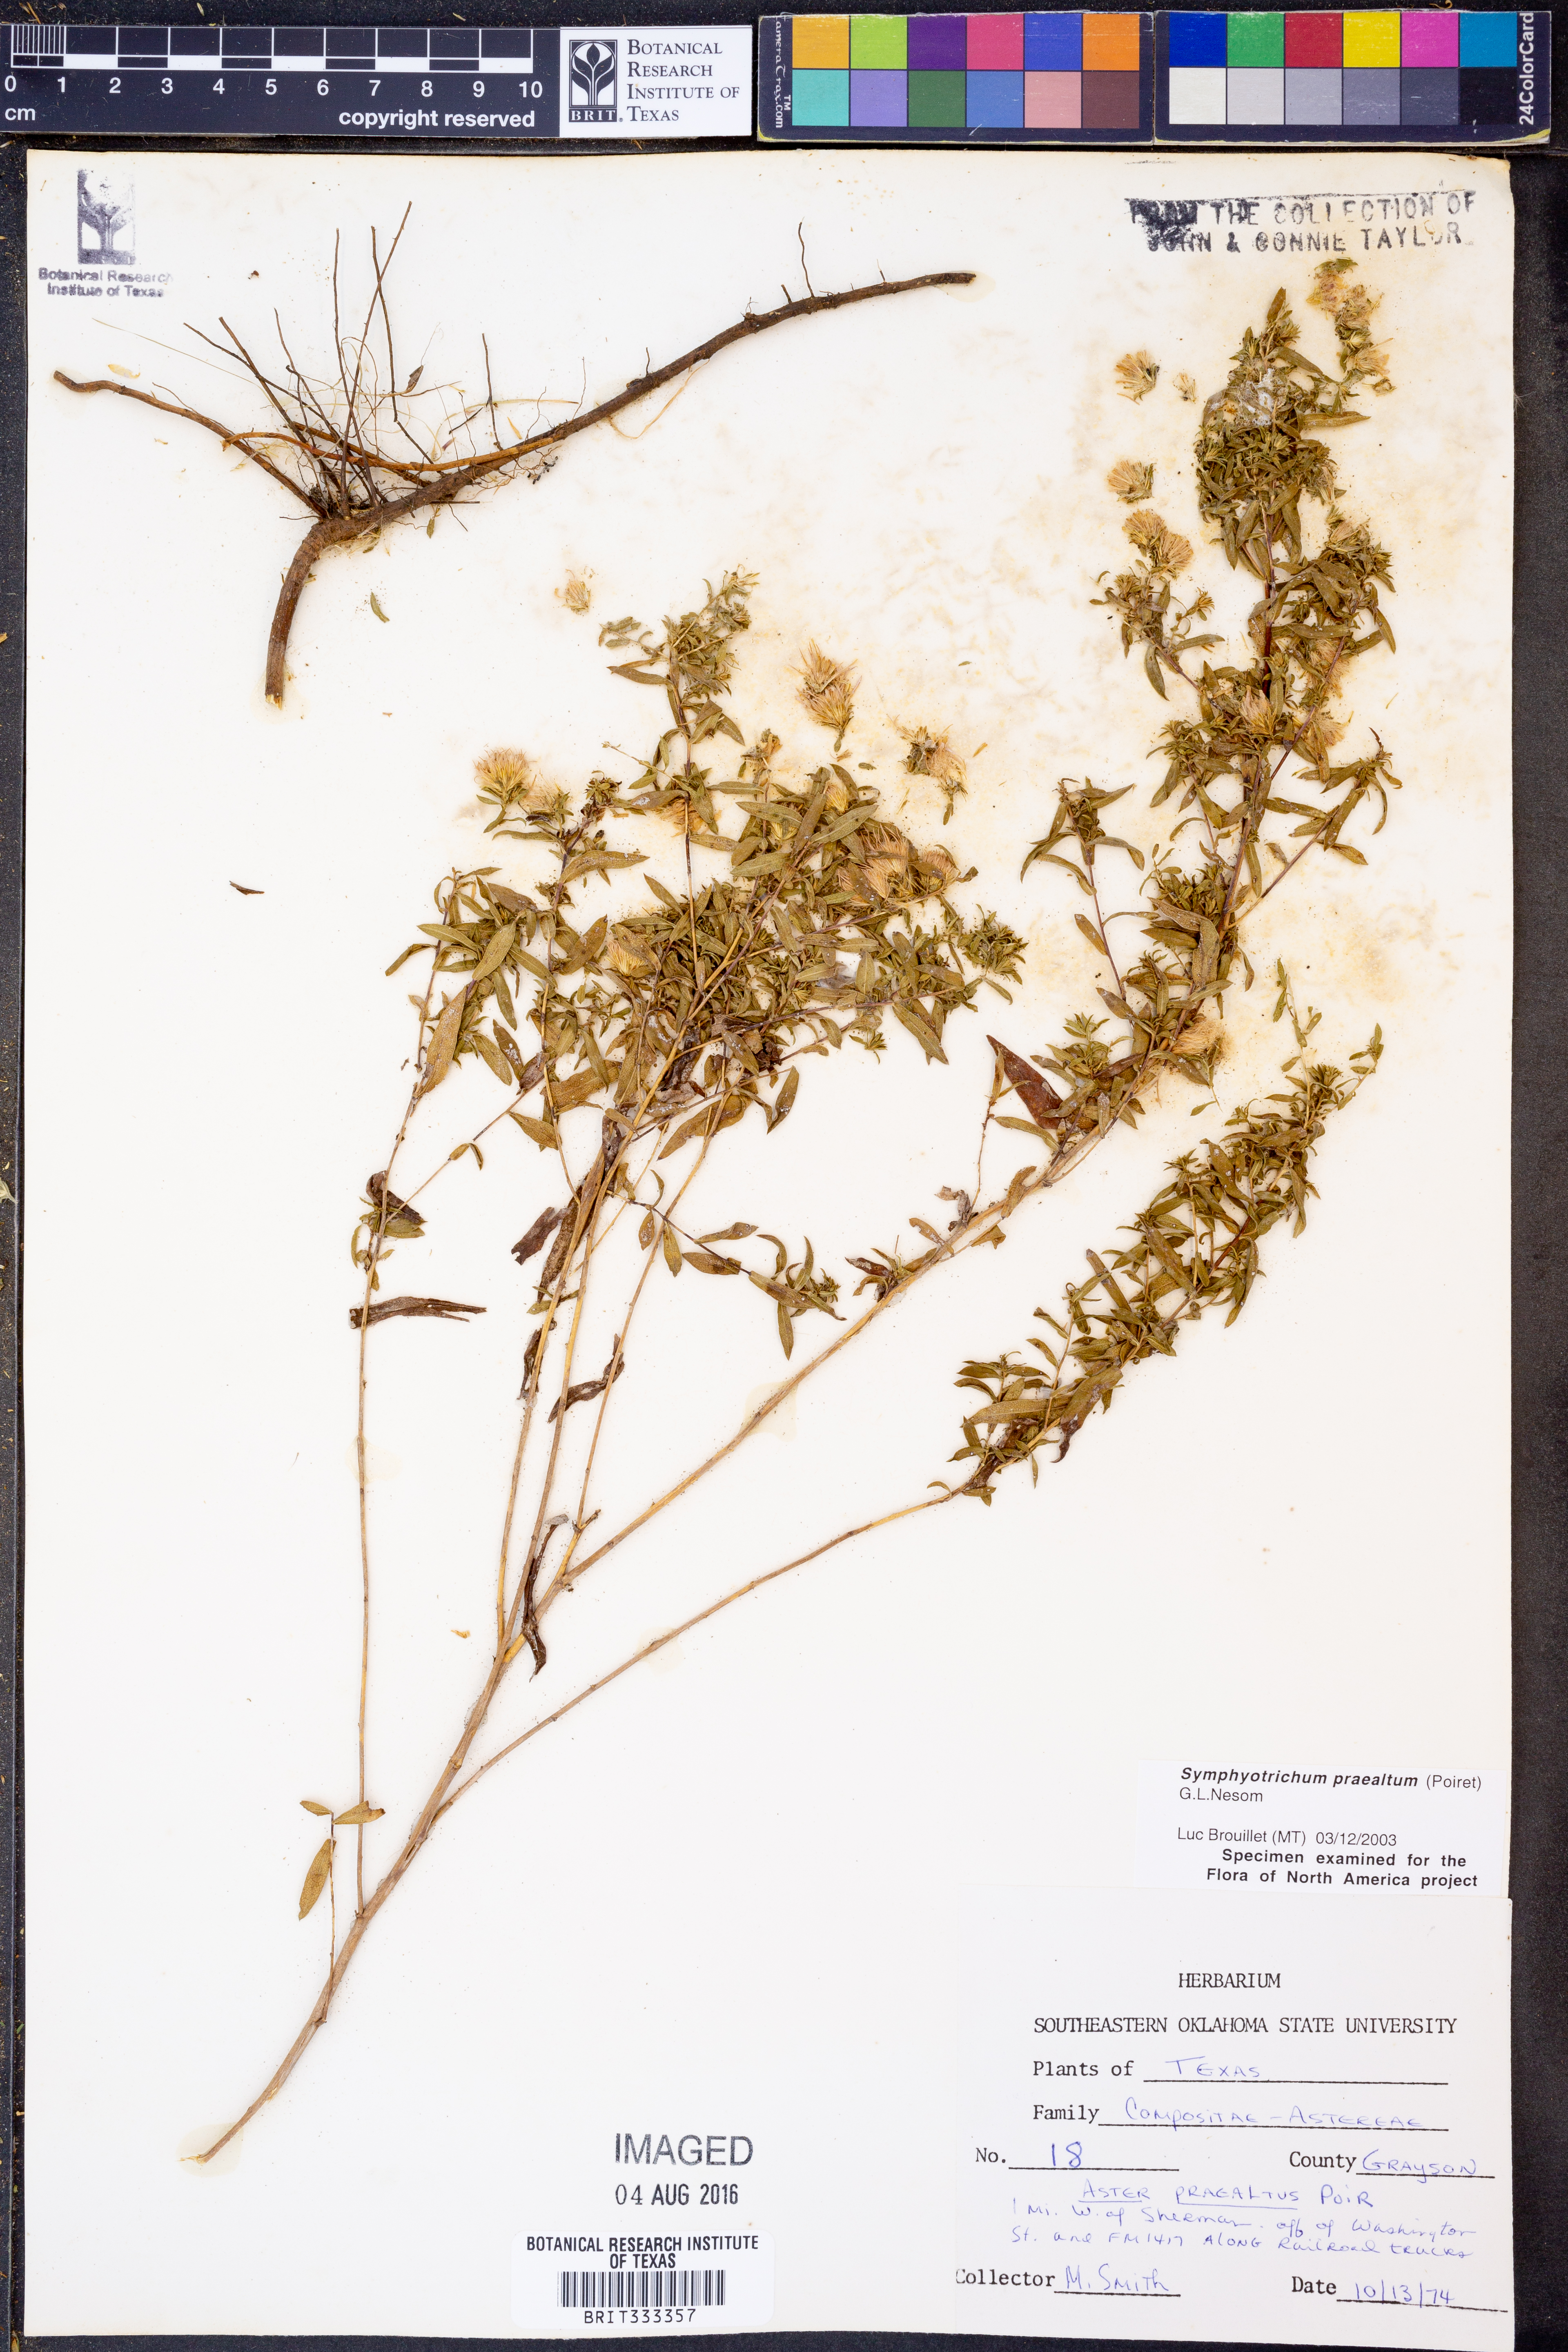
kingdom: Plantae
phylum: Tracheophyta
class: Magnoliopsida
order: Asterales
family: Asteraceae
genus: Symphyotrichum
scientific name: Symphyotrichum praealtum
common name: Willow aster
